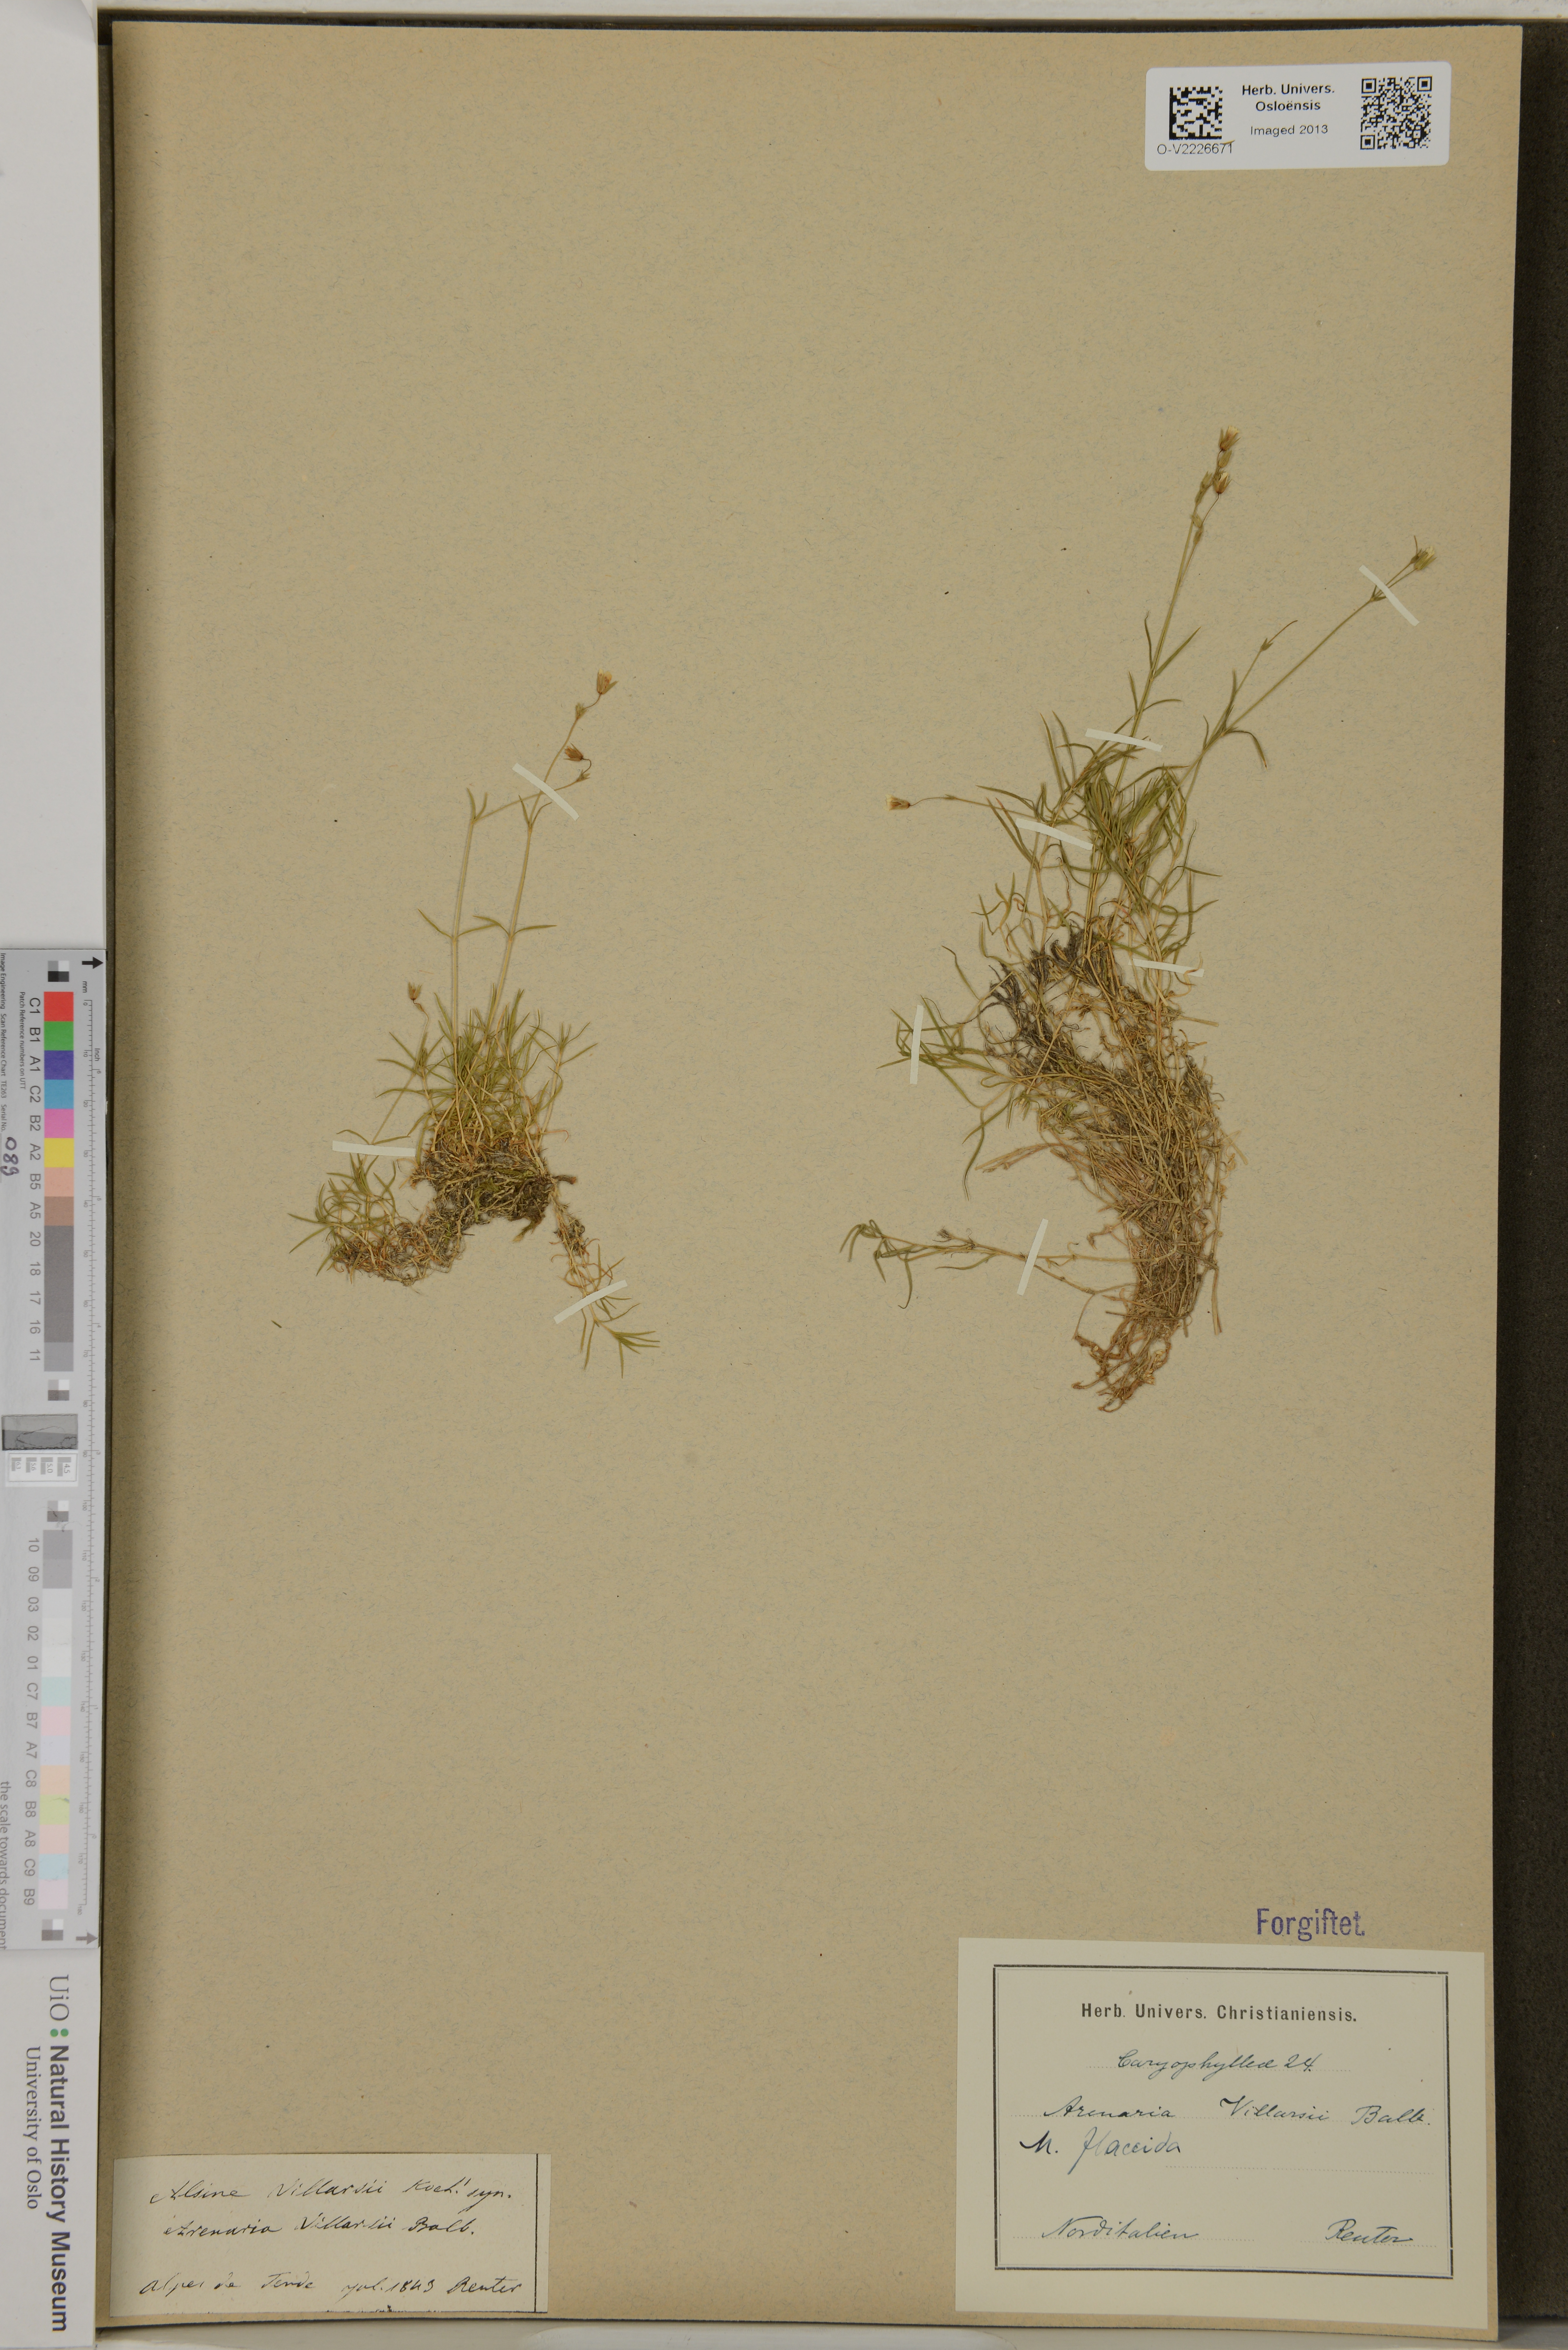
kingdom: Plantae
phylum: Tracheophyta
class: Magnoliopsida
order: Caryophyllales
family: Caryophyllaceae
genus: Facchinia
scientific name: Facchinia villarsii
